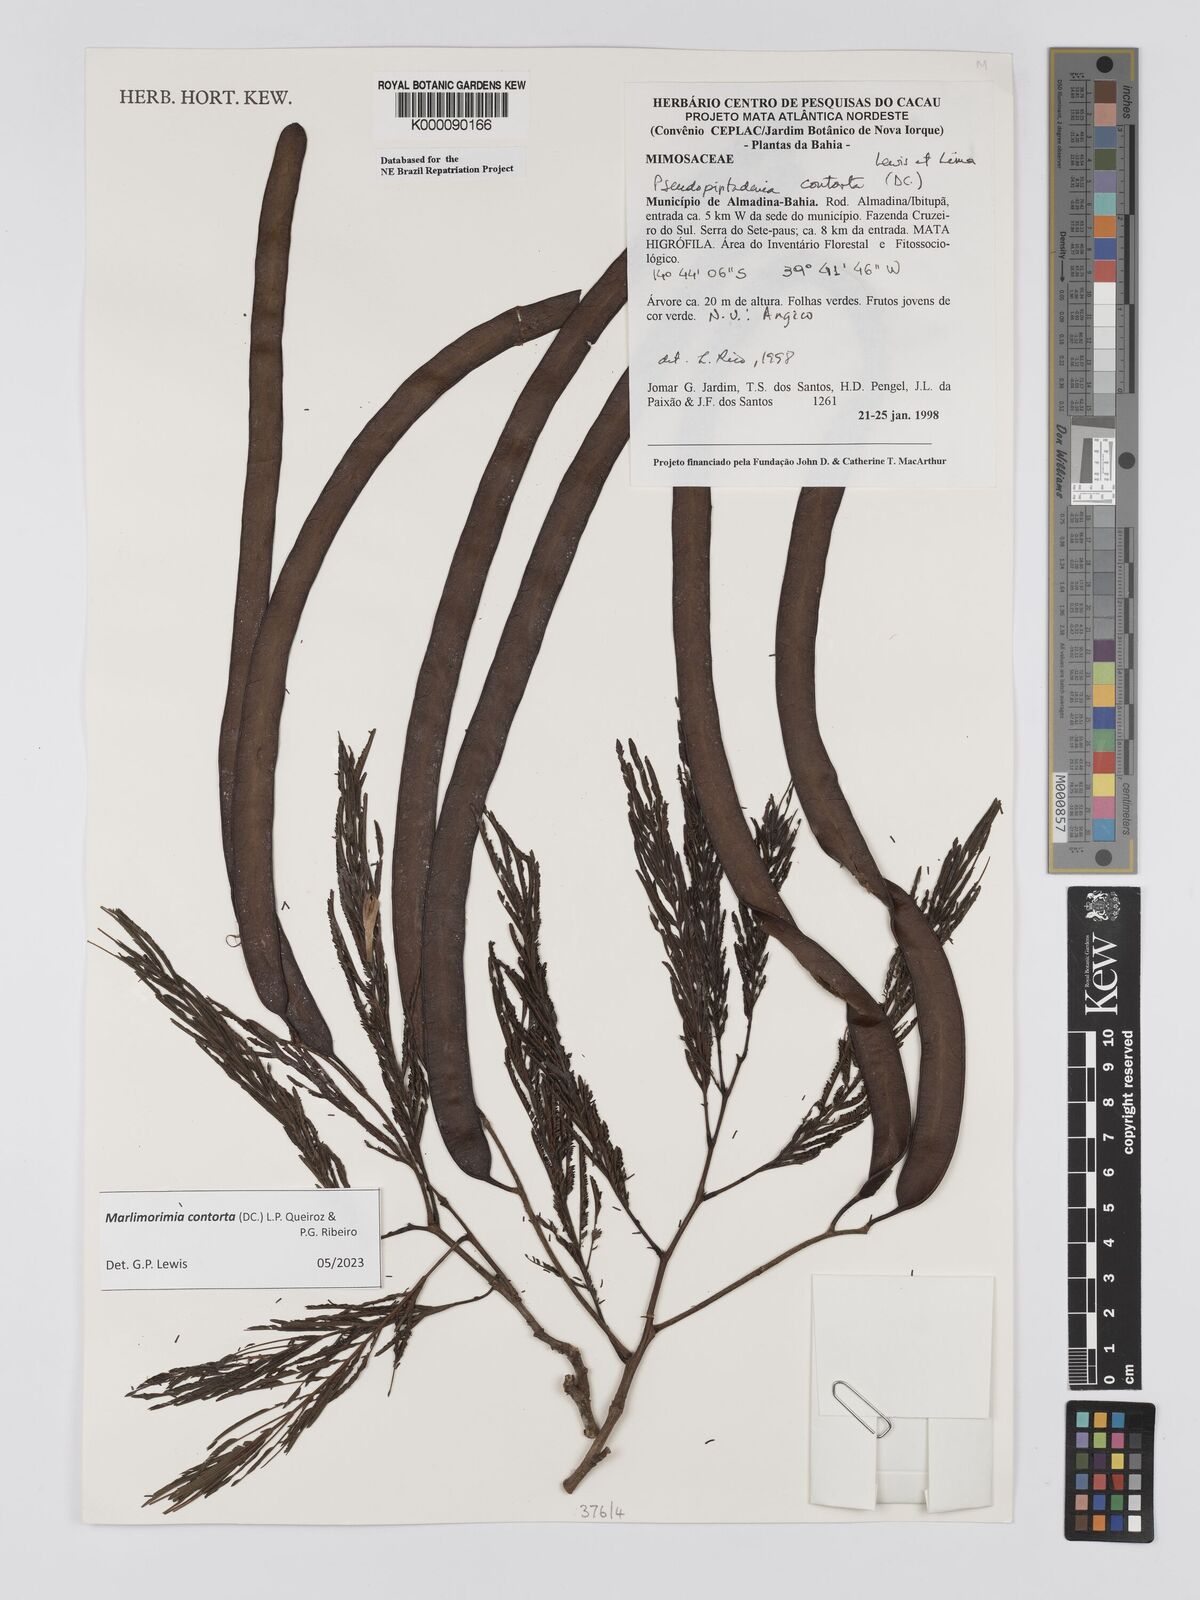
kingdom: Plantae
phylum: Tracheophyta
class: Magnoliopsida
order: Fabales
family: Fabaceae
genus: Pseudopiptadenia
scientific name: Pseudopiptadenia contorta
